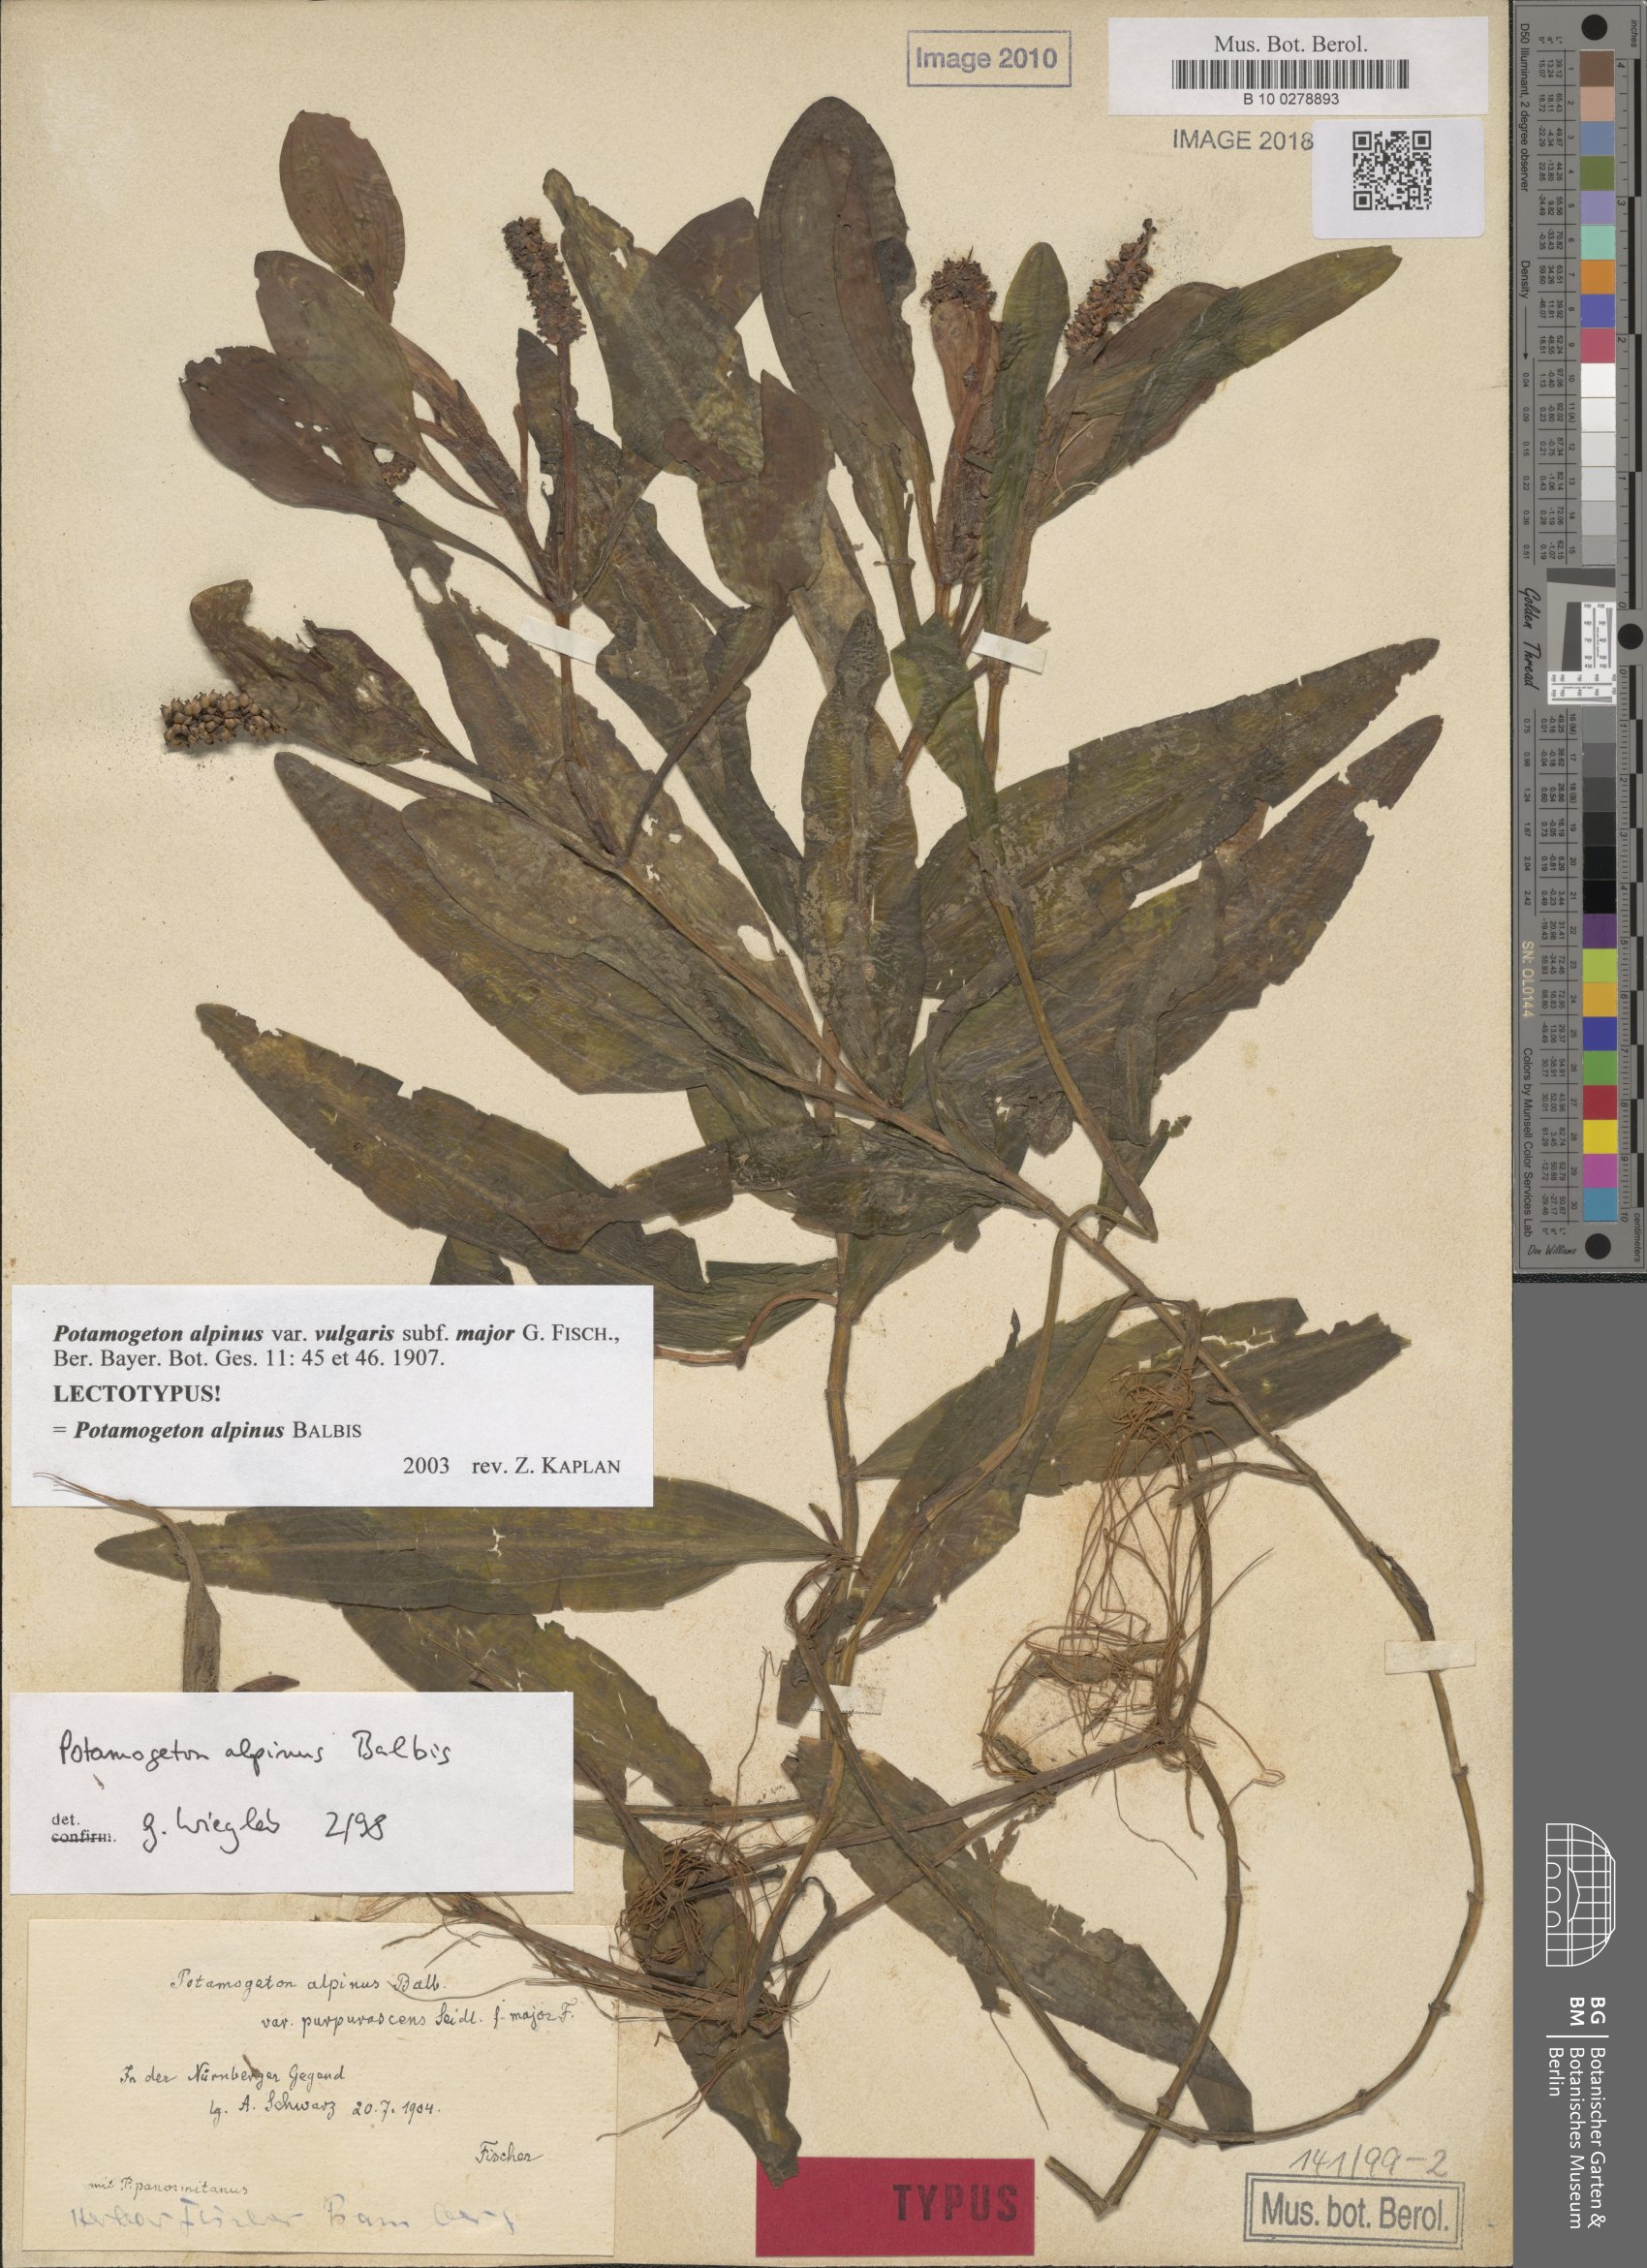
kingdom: Plantae
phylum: Tracheophyta
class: Liliopsida
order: Alismatales
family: Potamogetonaceae
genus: Potamogeton
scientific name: Potamogeton alpinus
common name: Red pondweed
